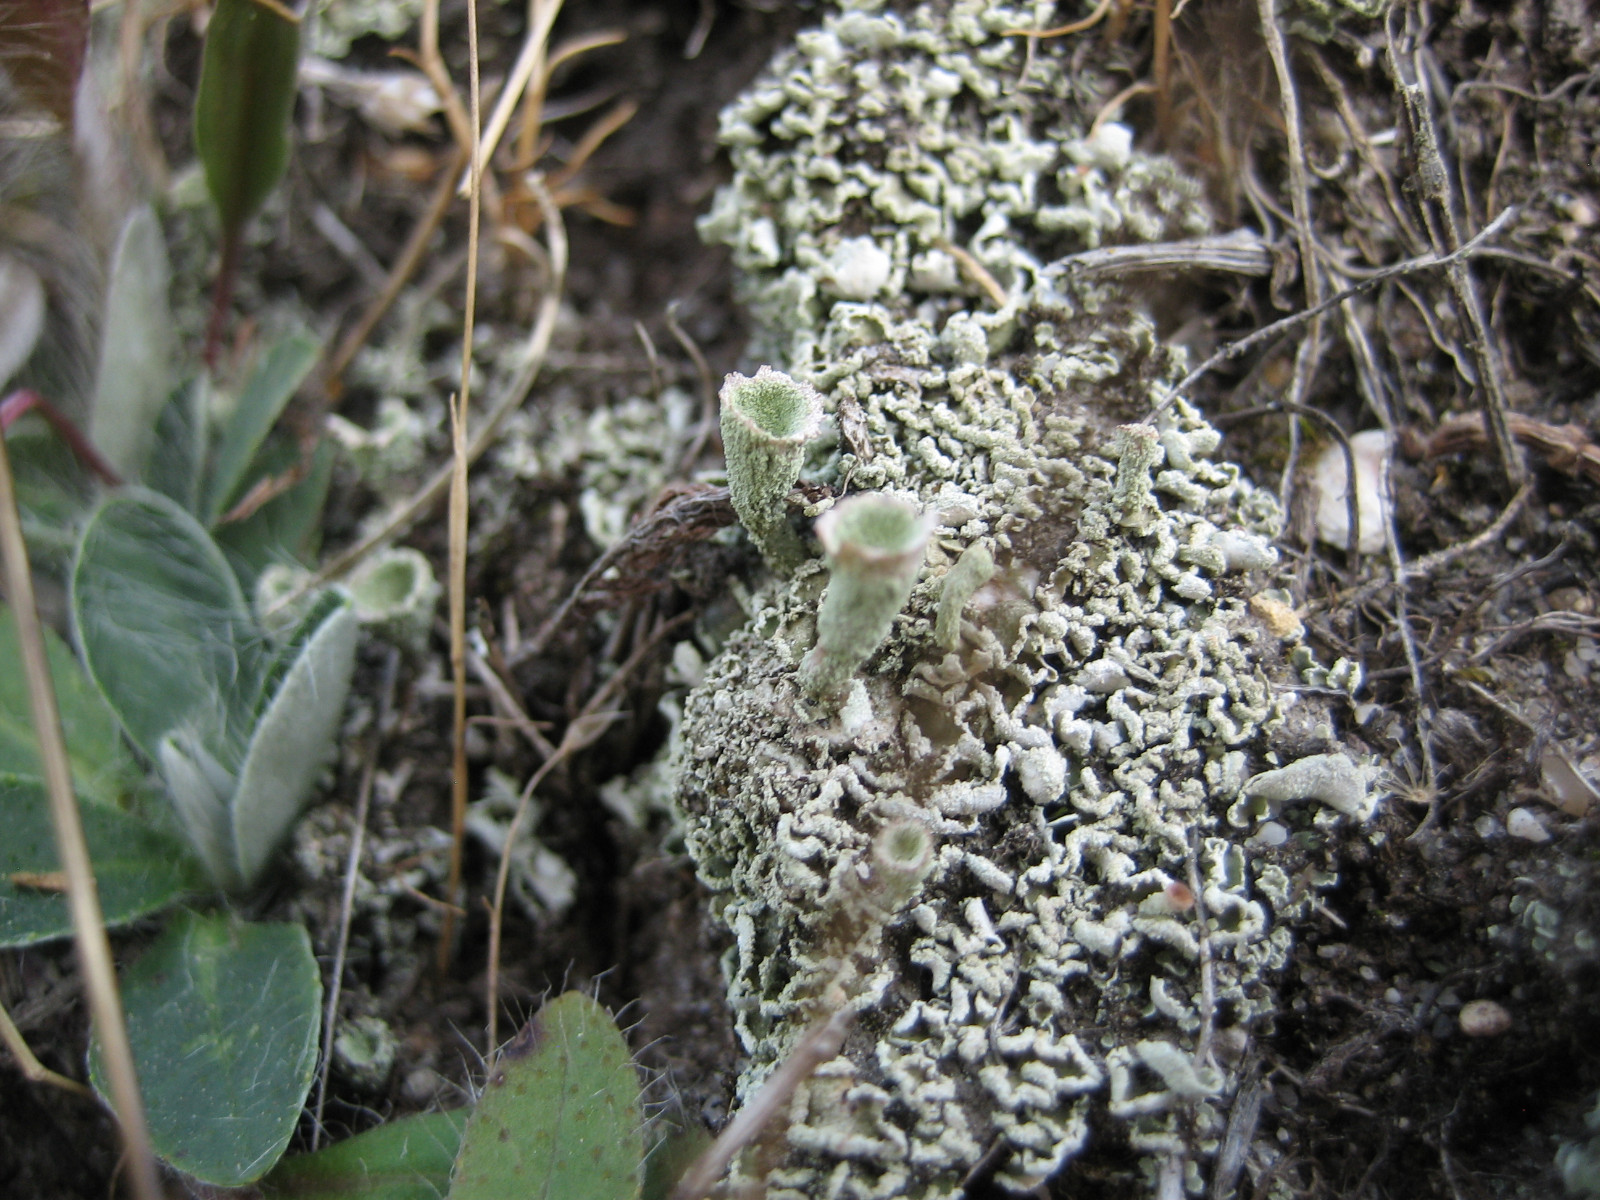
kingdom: Fungi
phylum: Ascomycota
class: Lecanoromycetes
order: Lecanorales
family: Cladoniaceae
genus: Cladonia
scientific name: Cladonia humilis
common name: lav bægerlav
